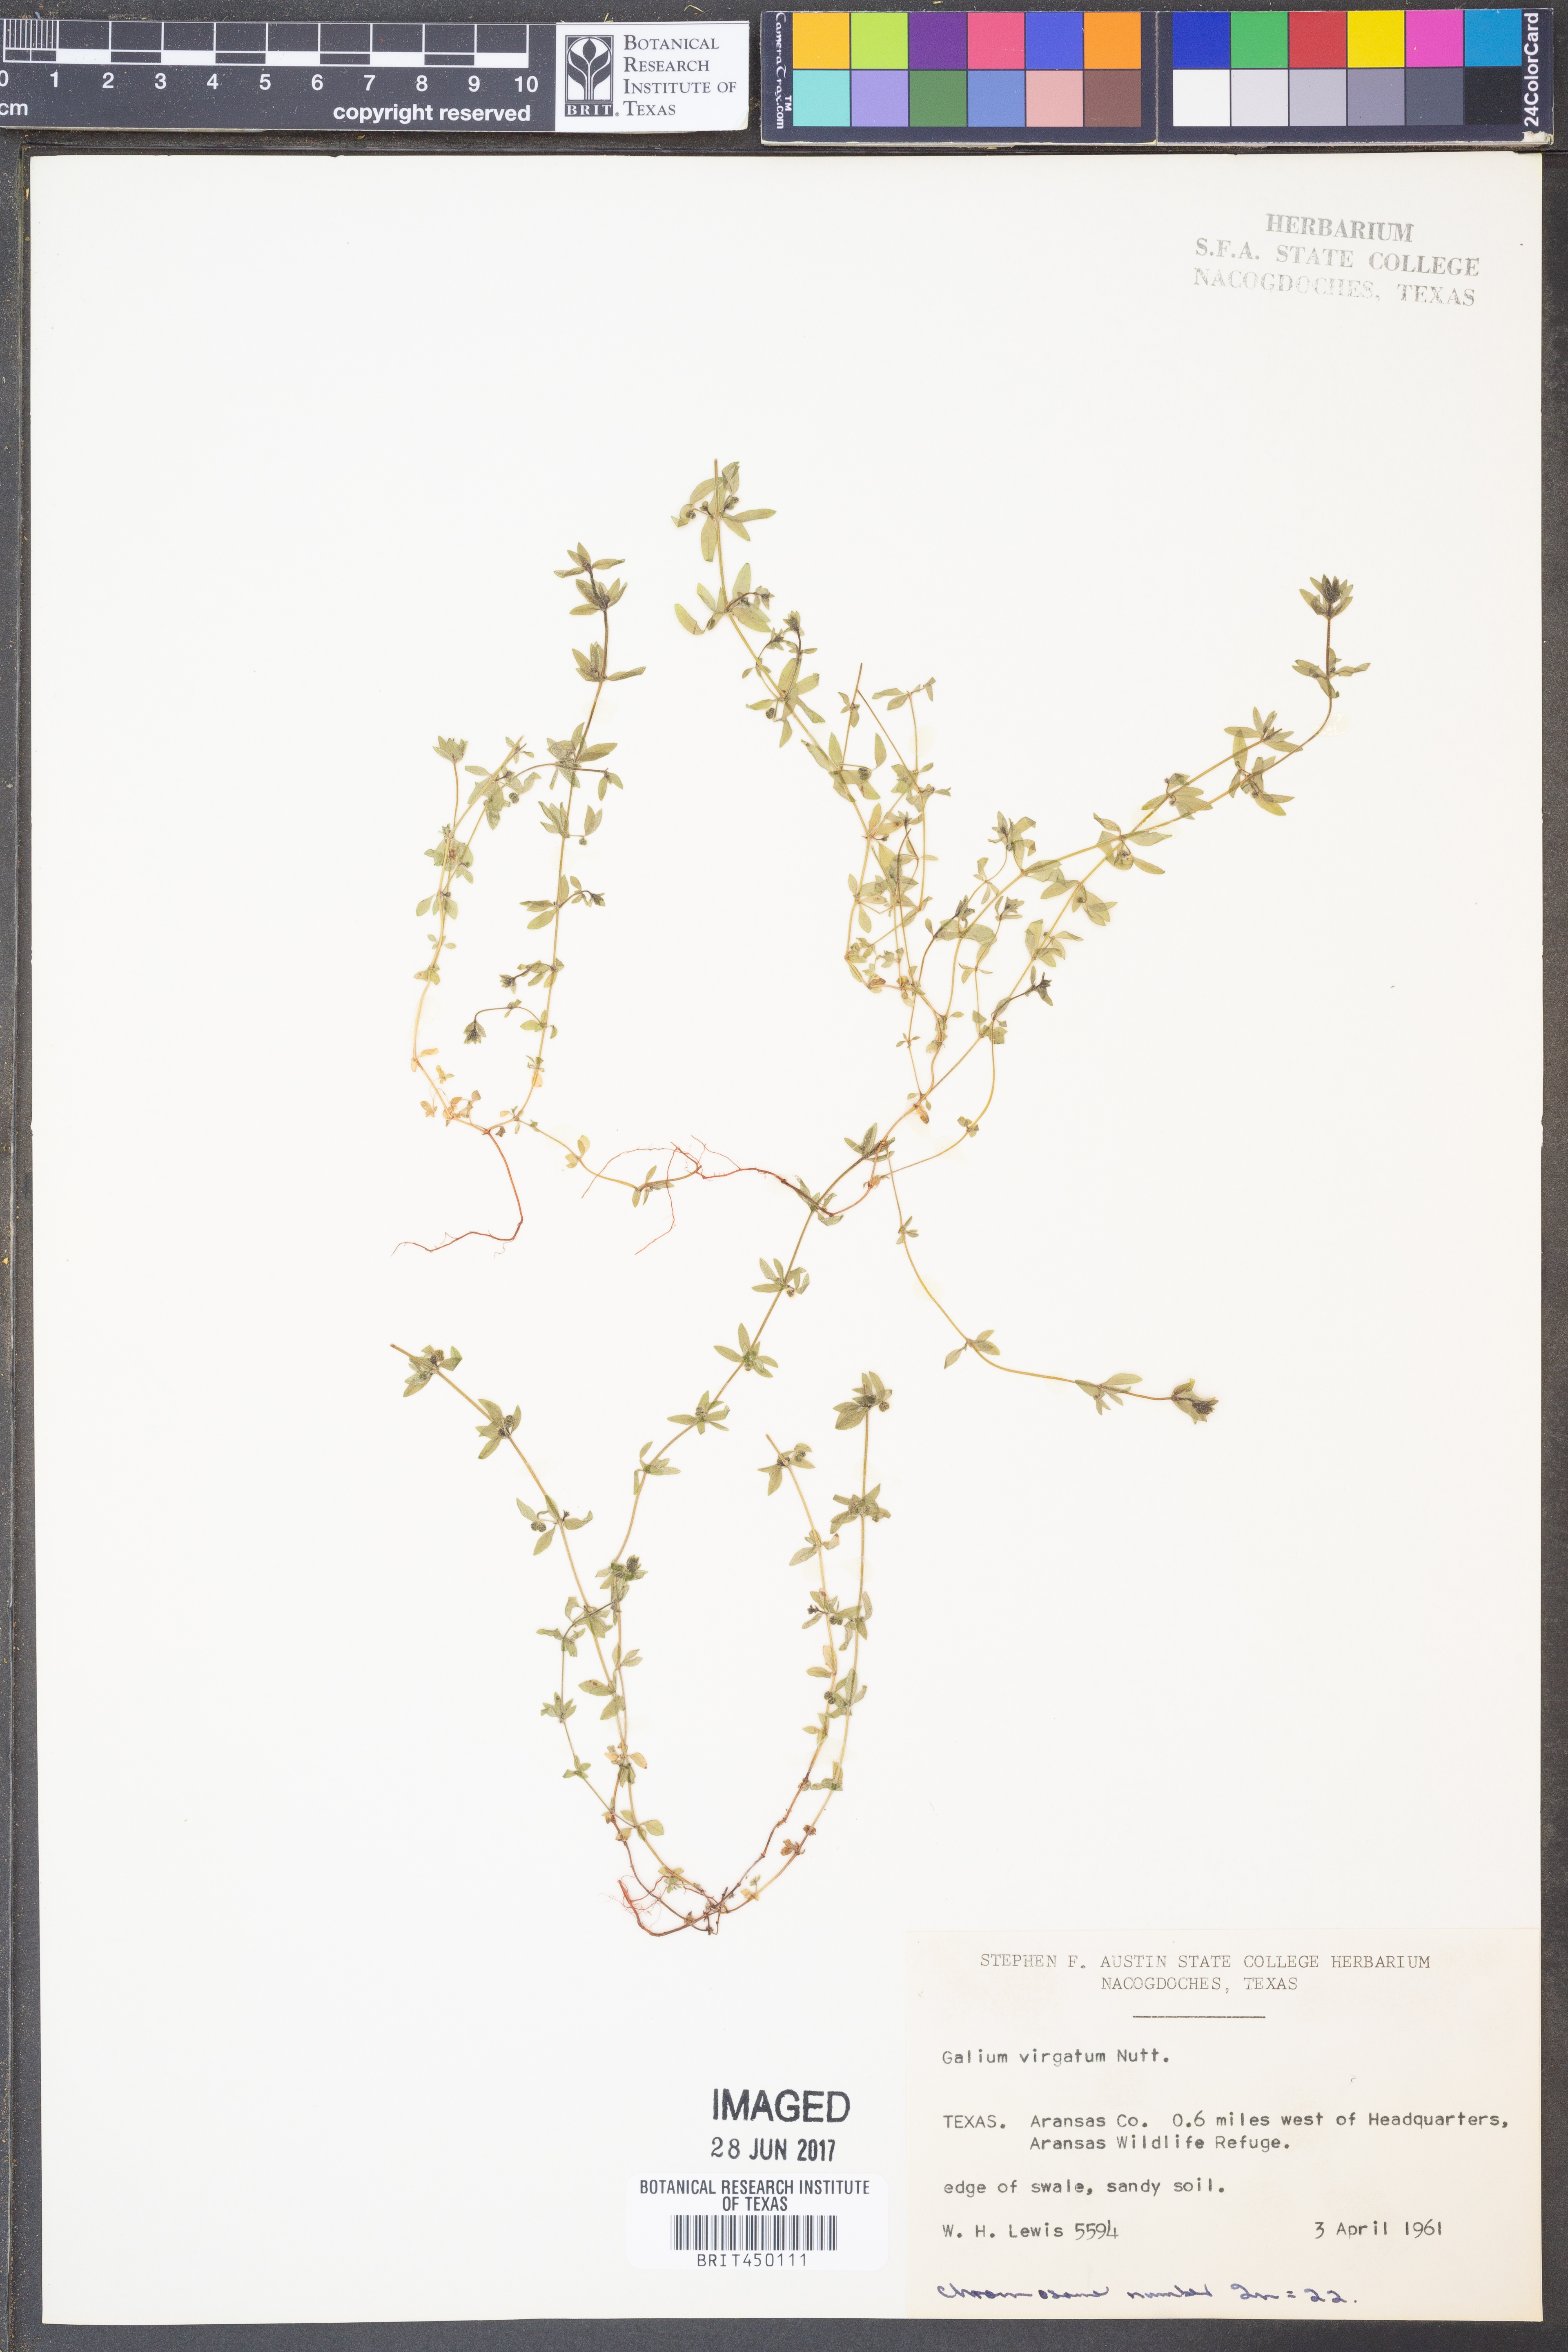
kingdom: Plantae
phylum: Tracheophyta
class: Magnoliopsida
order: Gentianales
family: Rubiaceae
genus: Galium
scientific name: Galium virgatum
